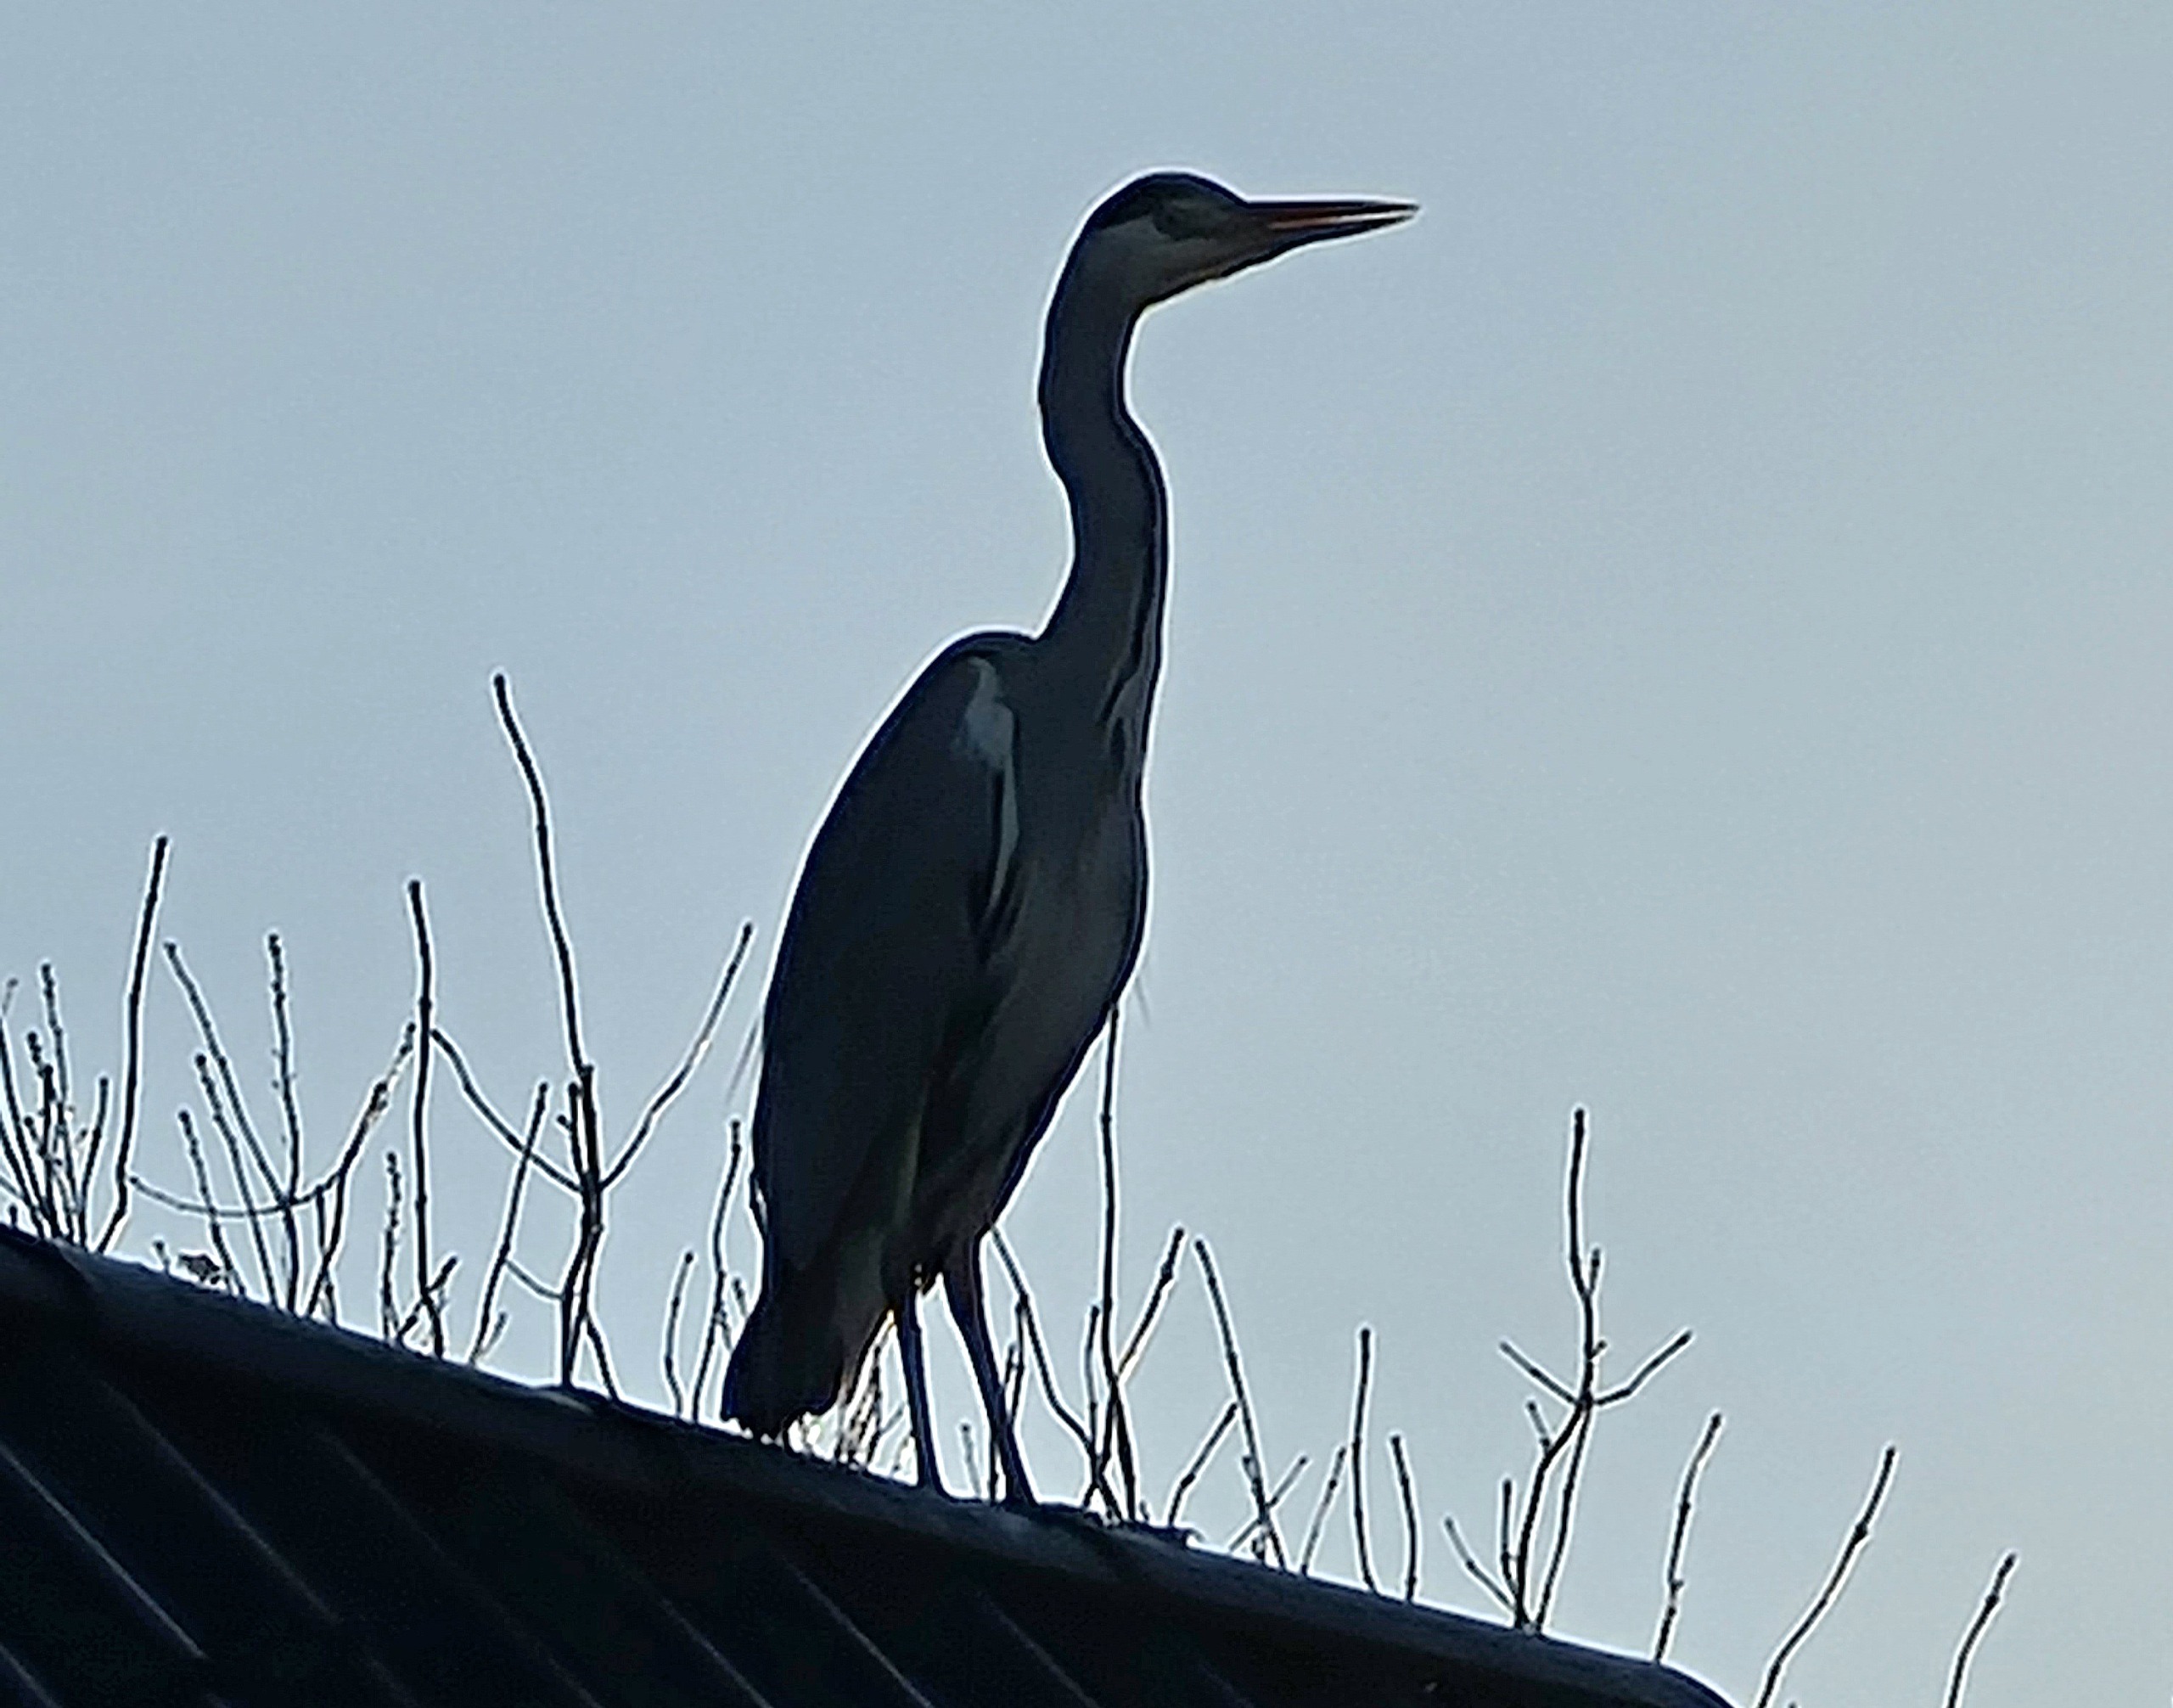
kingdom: Animalia
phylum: Chordata
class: Aves
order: Pelecaniformes
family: Ardeidae
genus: Ardea
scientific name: Ardea cinerea
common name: Fiskehejre
